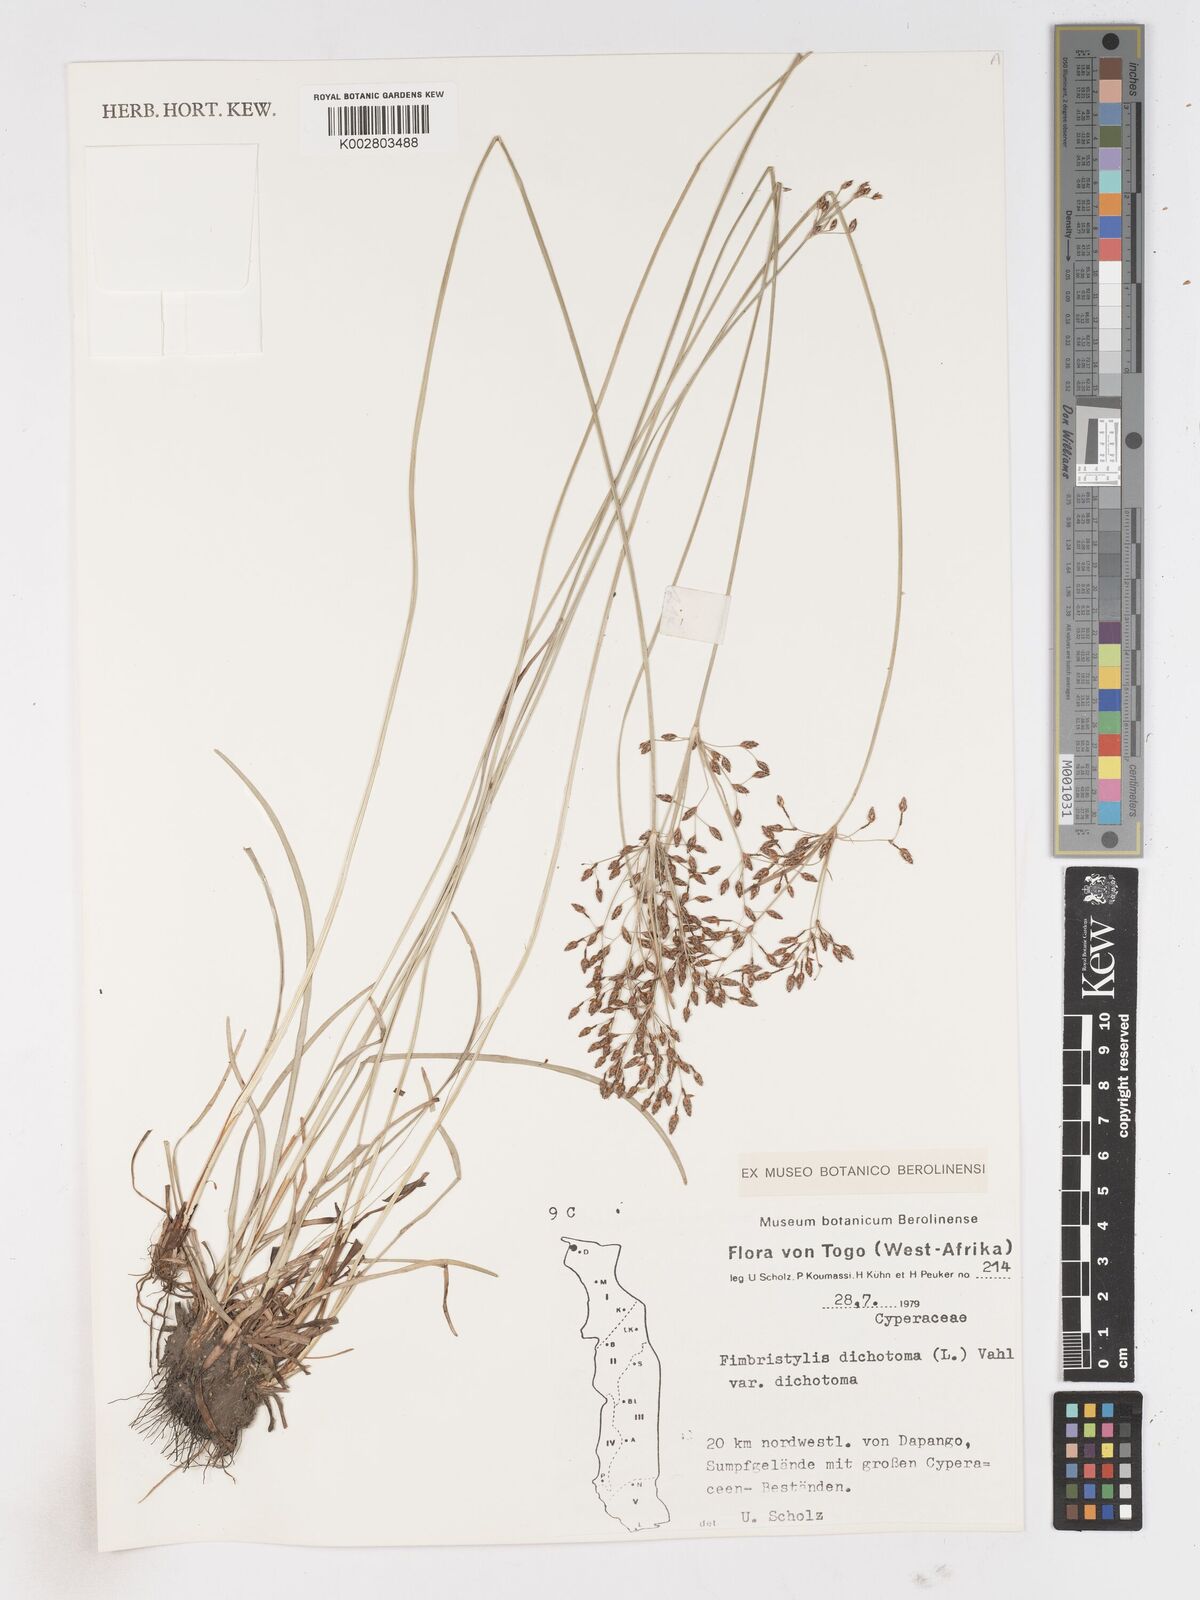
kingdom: Plantae
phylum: Tracheophyta
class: Liliopsida
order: Poales
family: Cyperaceae
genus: Fimbristylis
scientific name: Fimbristylis dichotoma
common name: Forked fimbry
